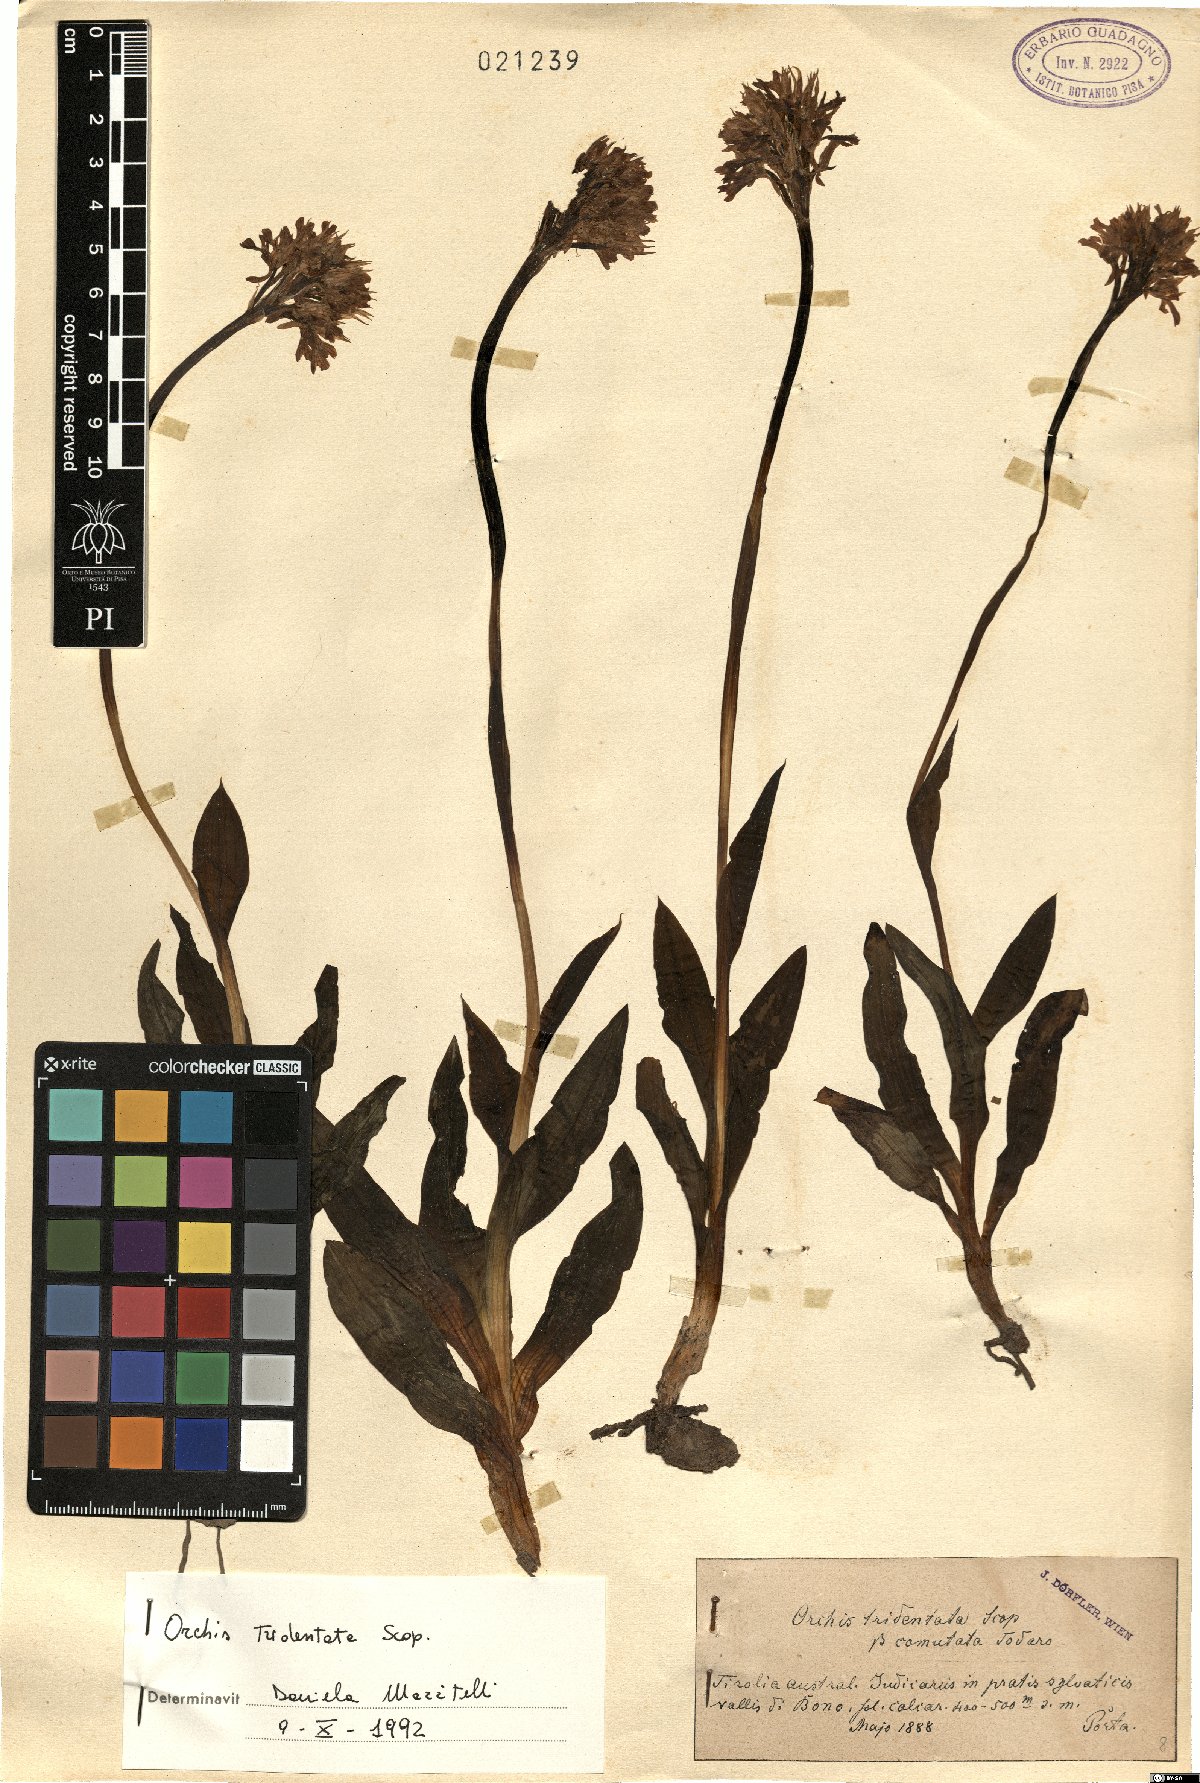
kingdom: Plantae
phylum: Tracheophyta
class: Liliopsida
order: Asparagales
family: Orchidaceae
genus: Neotinea
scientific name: Neotinea tridentata
